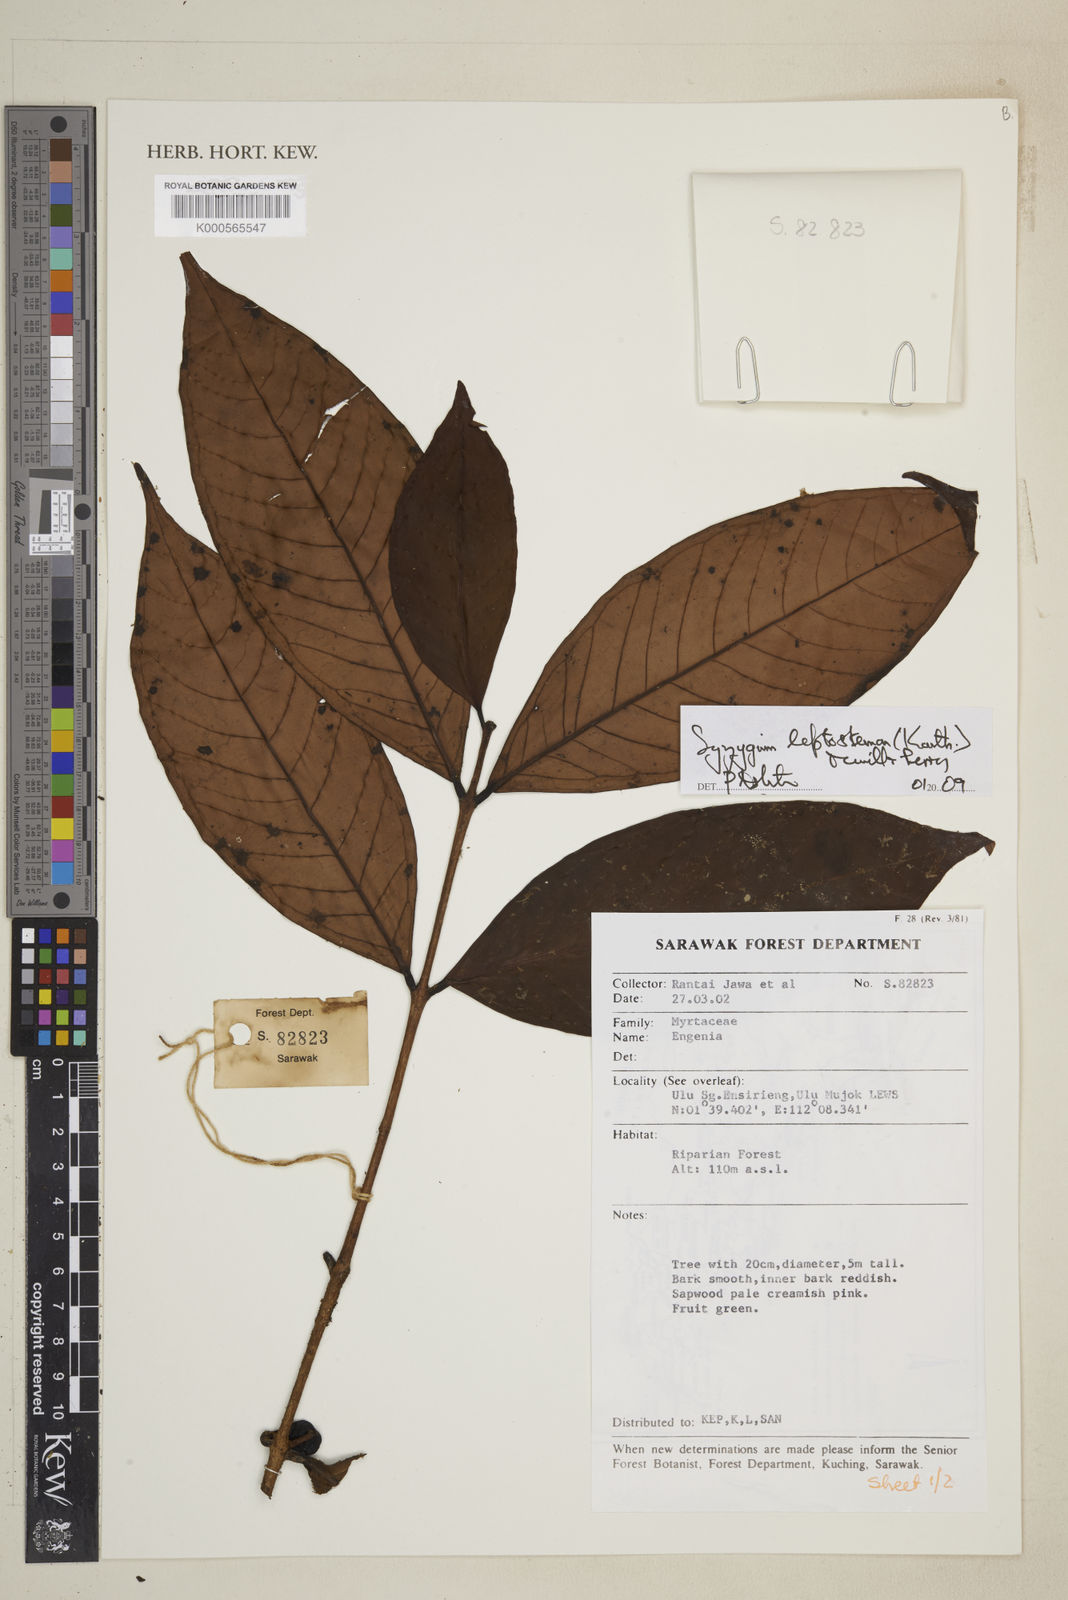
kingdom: Plantae
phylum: Tracheophyta
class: Magnoliopsida
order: Myrtales
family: Myrtaceae
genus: Syzygium
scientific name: Syzygium urceolatum
